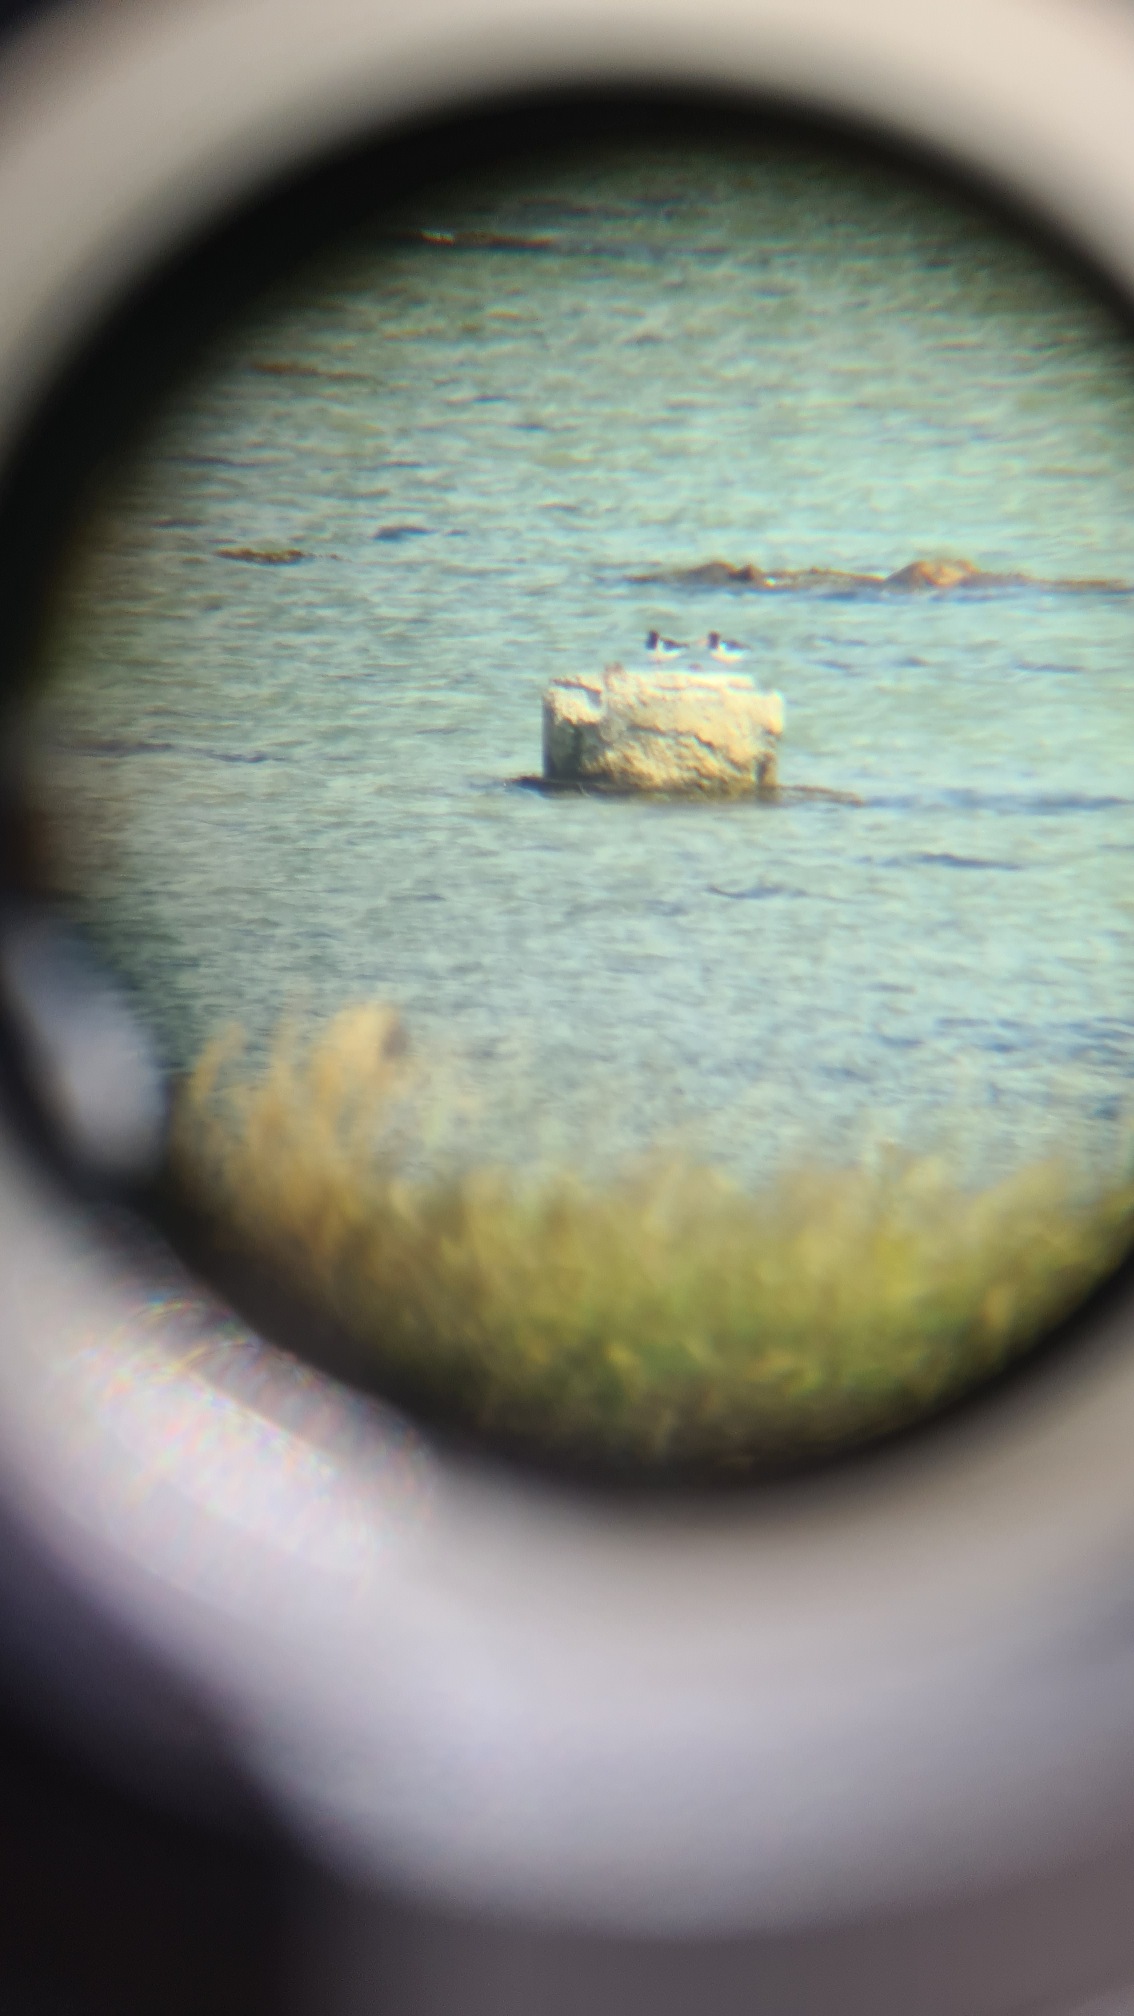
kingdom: Animalia
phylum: Chordata
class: Aves
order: Charadriiformes
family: Haematopodidae
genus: Haematopus
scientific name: Haematopus ostralegus
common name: Strandskade
